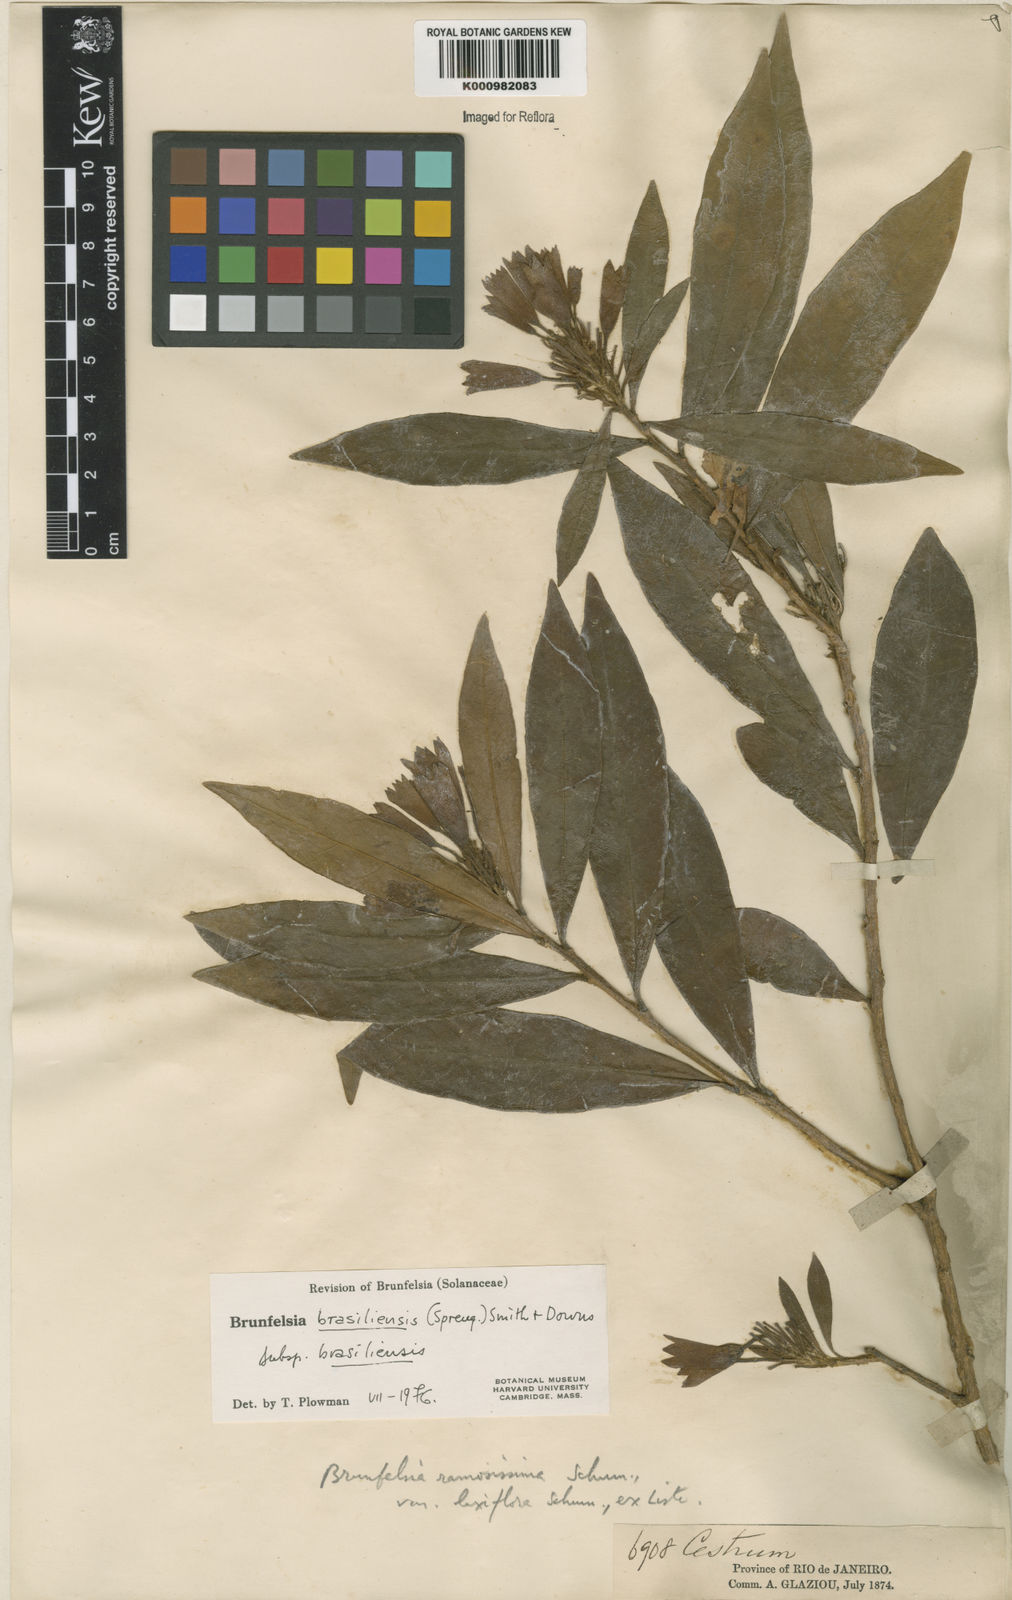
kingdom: Plantae
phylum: Tracheophyta
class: Magnoliopsida
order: Solanales
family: Solanaceae
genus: Brunfelsia
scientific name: Brunfelsia brasiliensis
